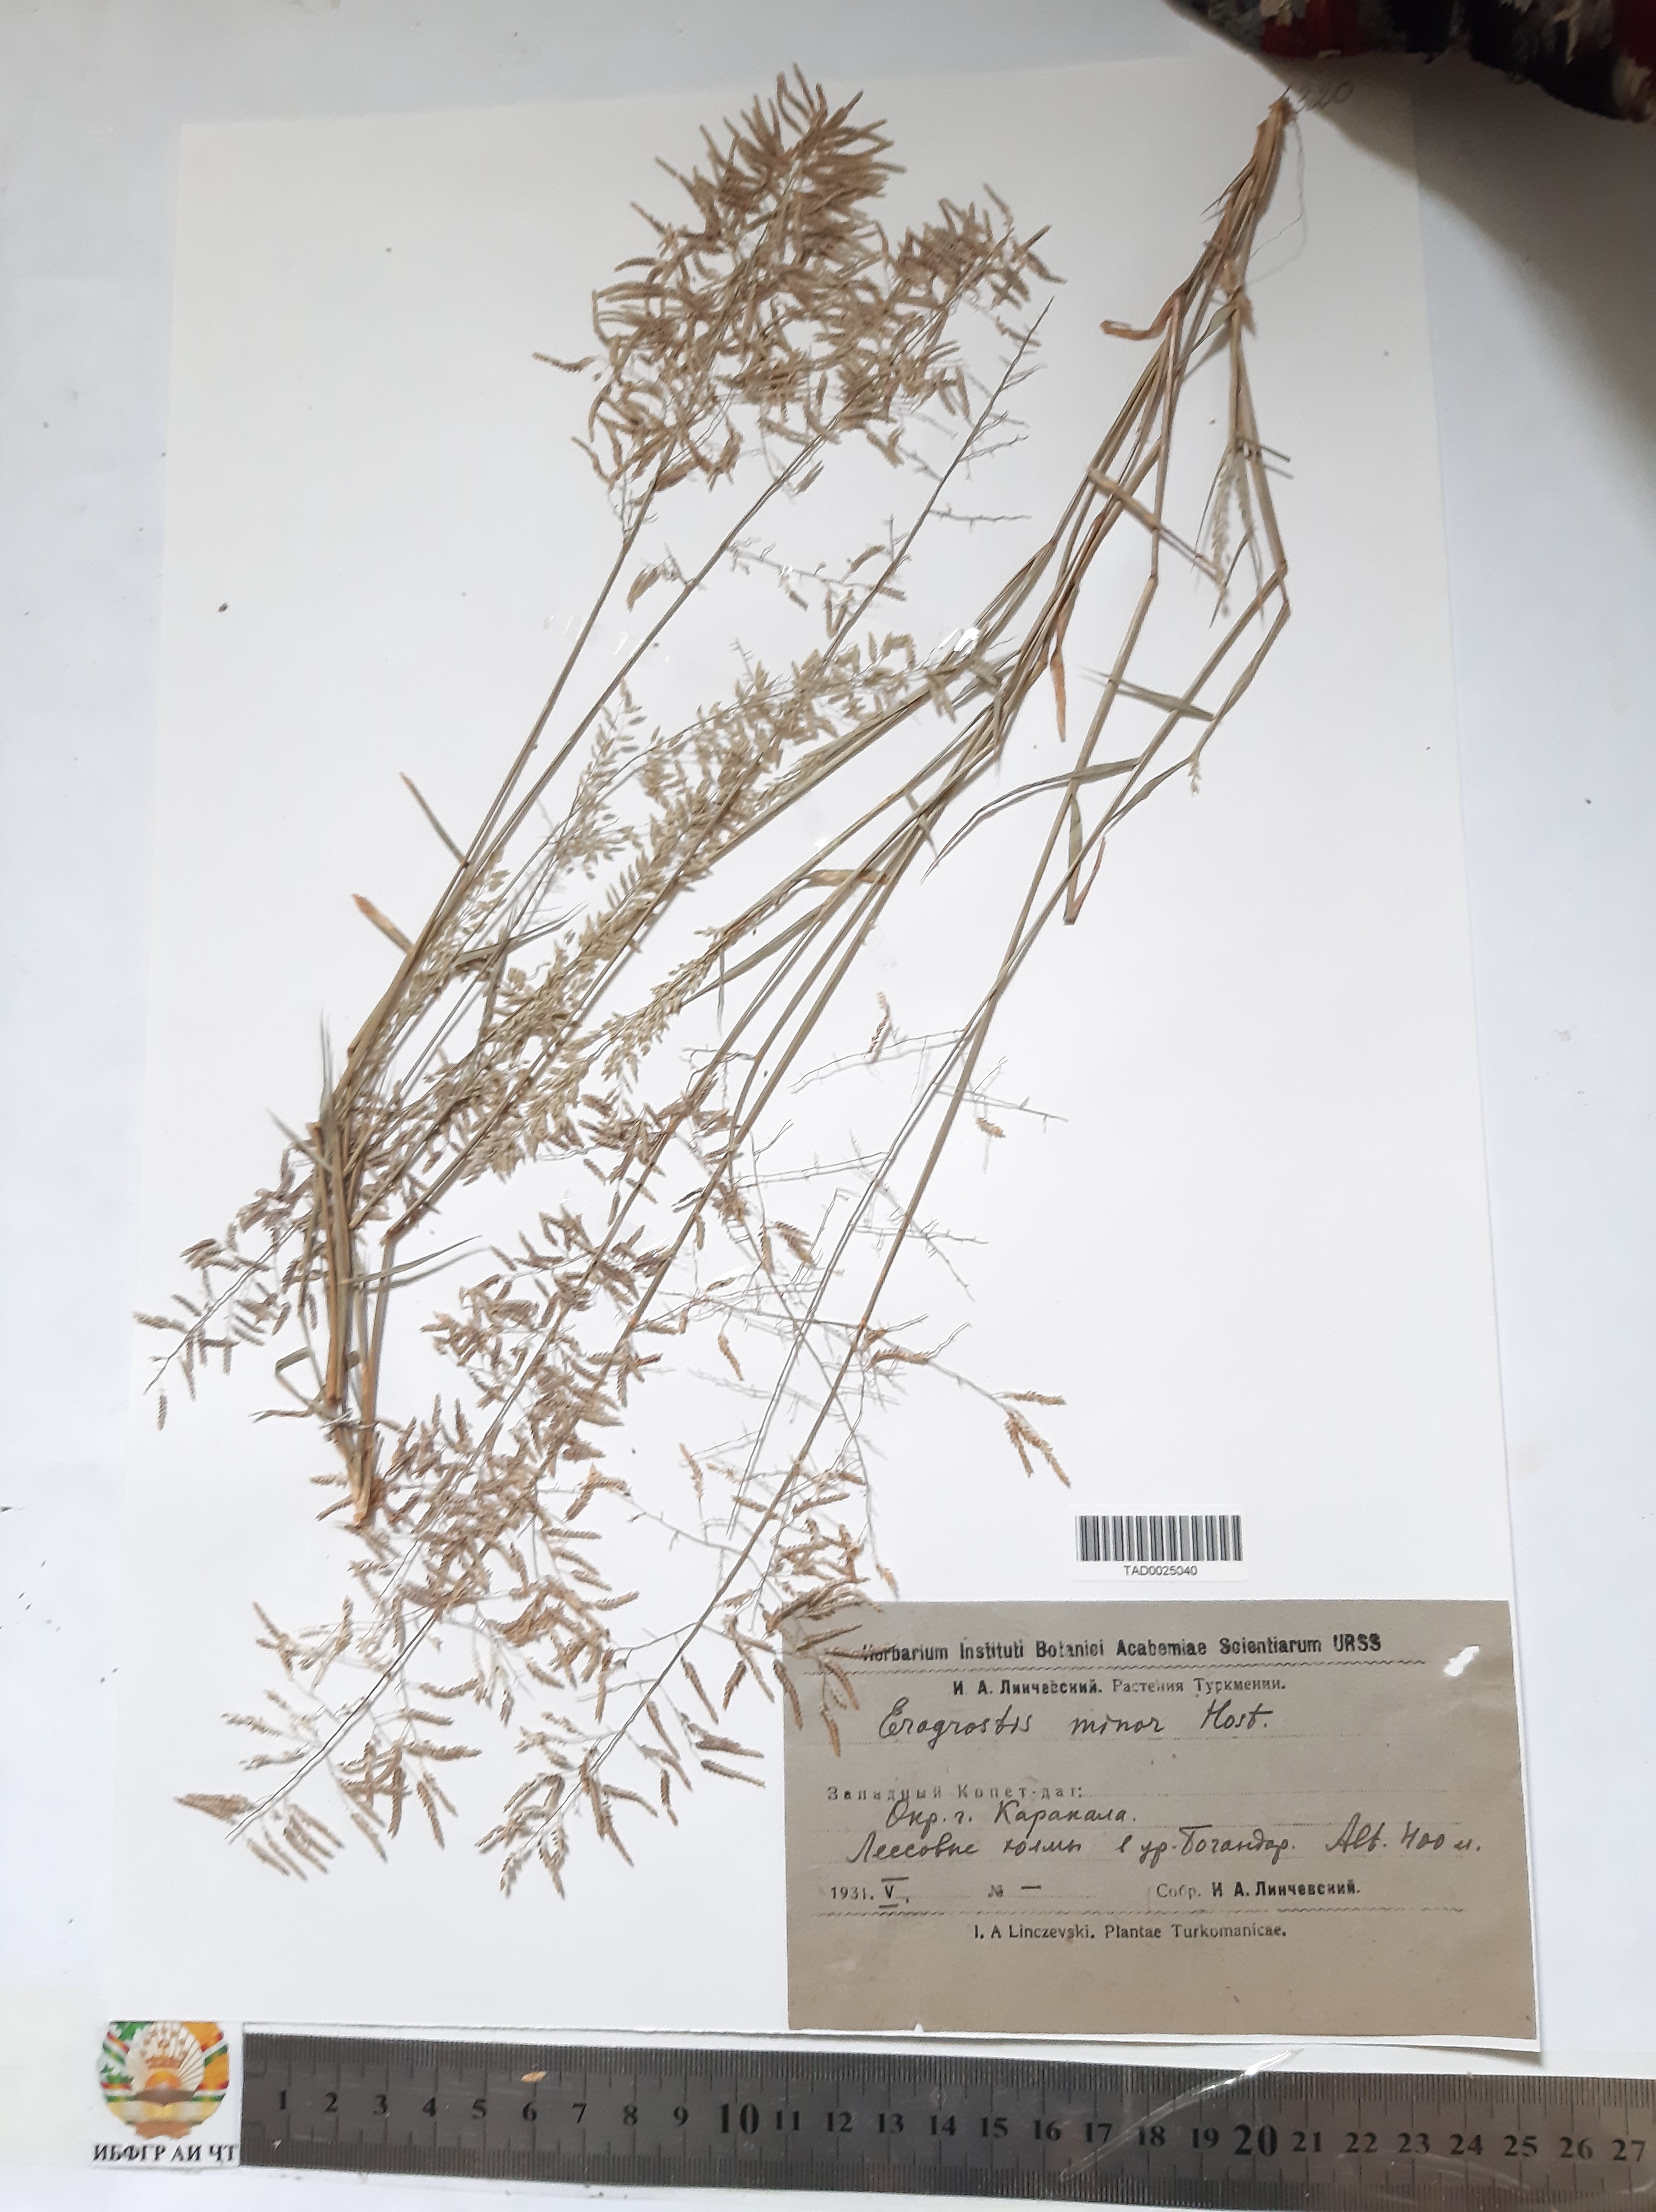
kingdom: Plantae
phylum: Tracheophyta
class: Liliopsida
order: Poales
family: Poaceae
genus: Eragrostis
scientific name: Eragrostis minor
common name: Small love-grass
